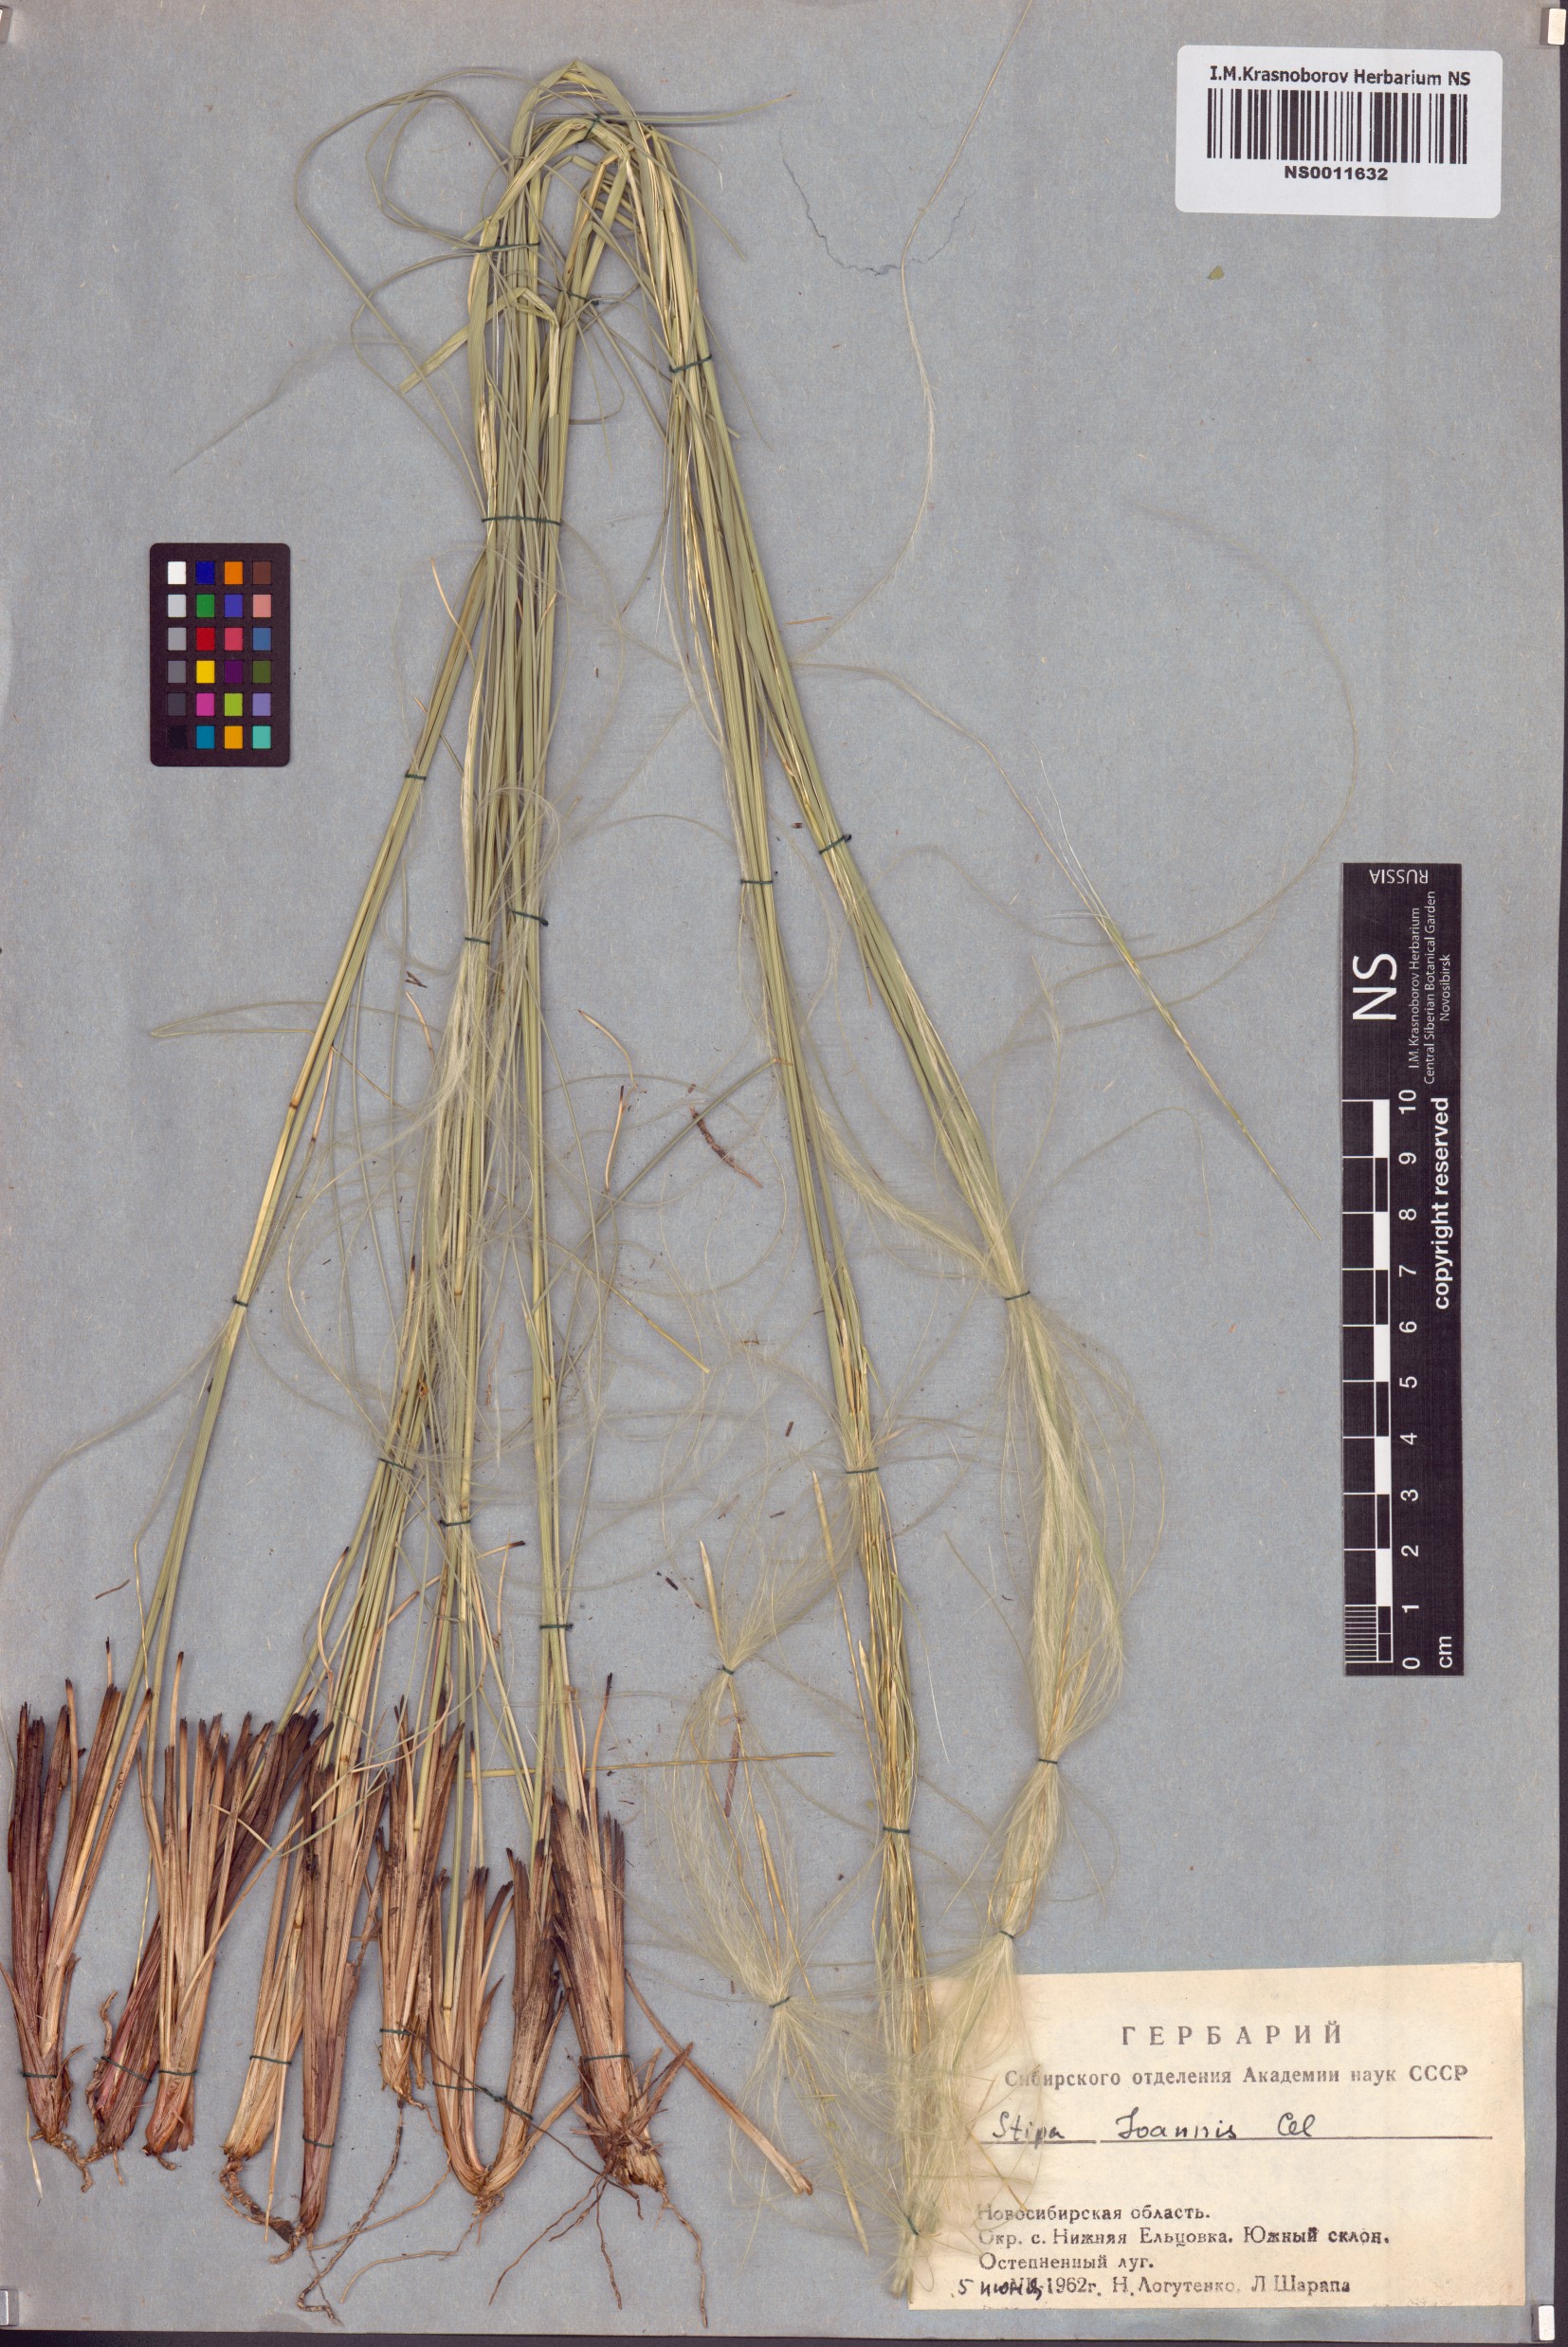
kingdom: Plantae
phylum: Tracheophyta
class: Liliopsida
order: Poales
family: Poaceae
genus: Stipa
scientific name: Stipa pennata
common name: European feather grass
